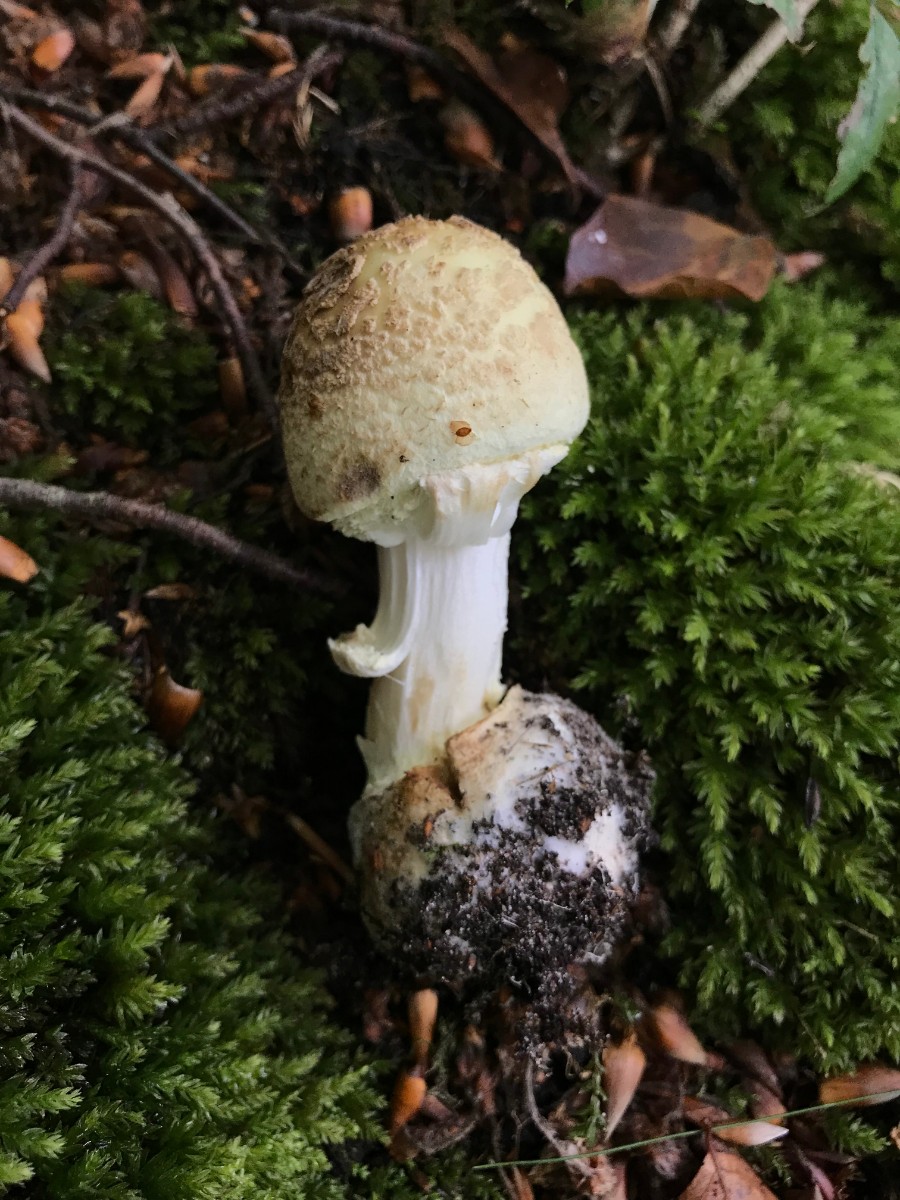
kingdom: Fungi
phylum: Basidiomycota
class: Agaricomycetes
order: Agaricales
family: Amanitaceae
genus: Amanita
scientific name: Amanita citrina
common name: kugleknoldet fluesvamp
